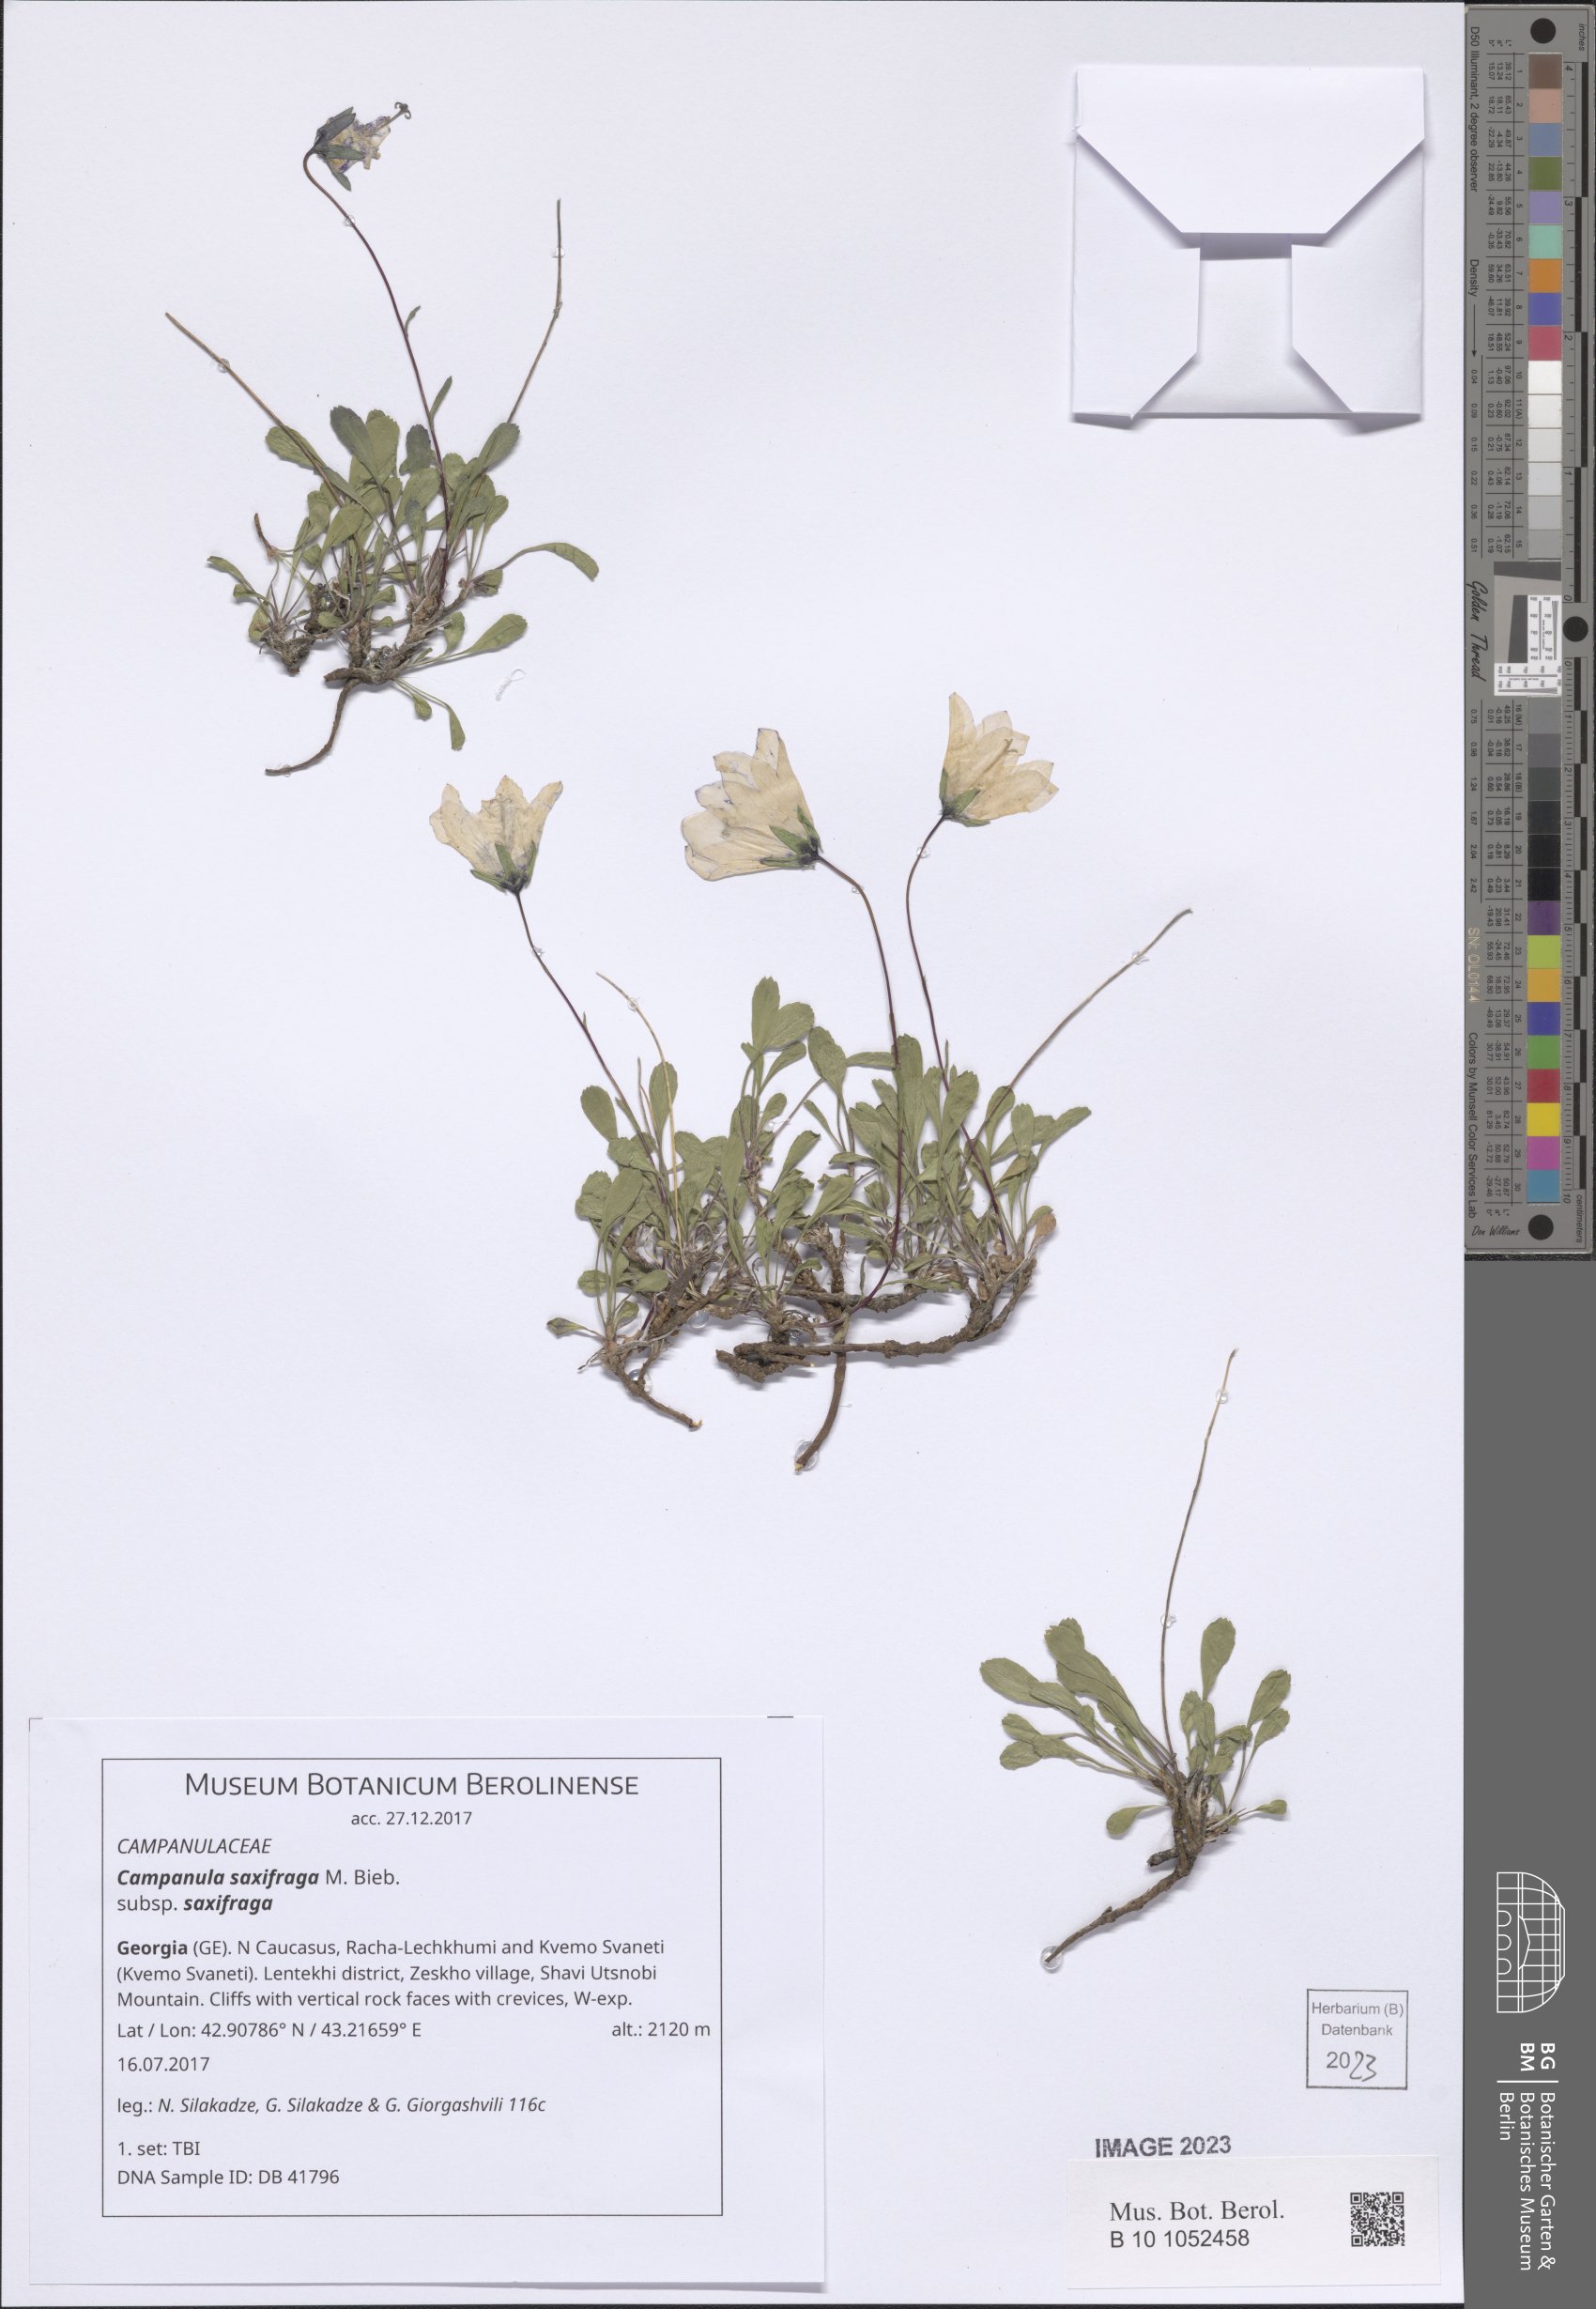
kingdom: Plantae
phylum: Tracheophyta
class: Magnoliopsida
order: Asterales
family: Campanulaceae
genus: Campanula
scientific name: Campanula saxifraga
